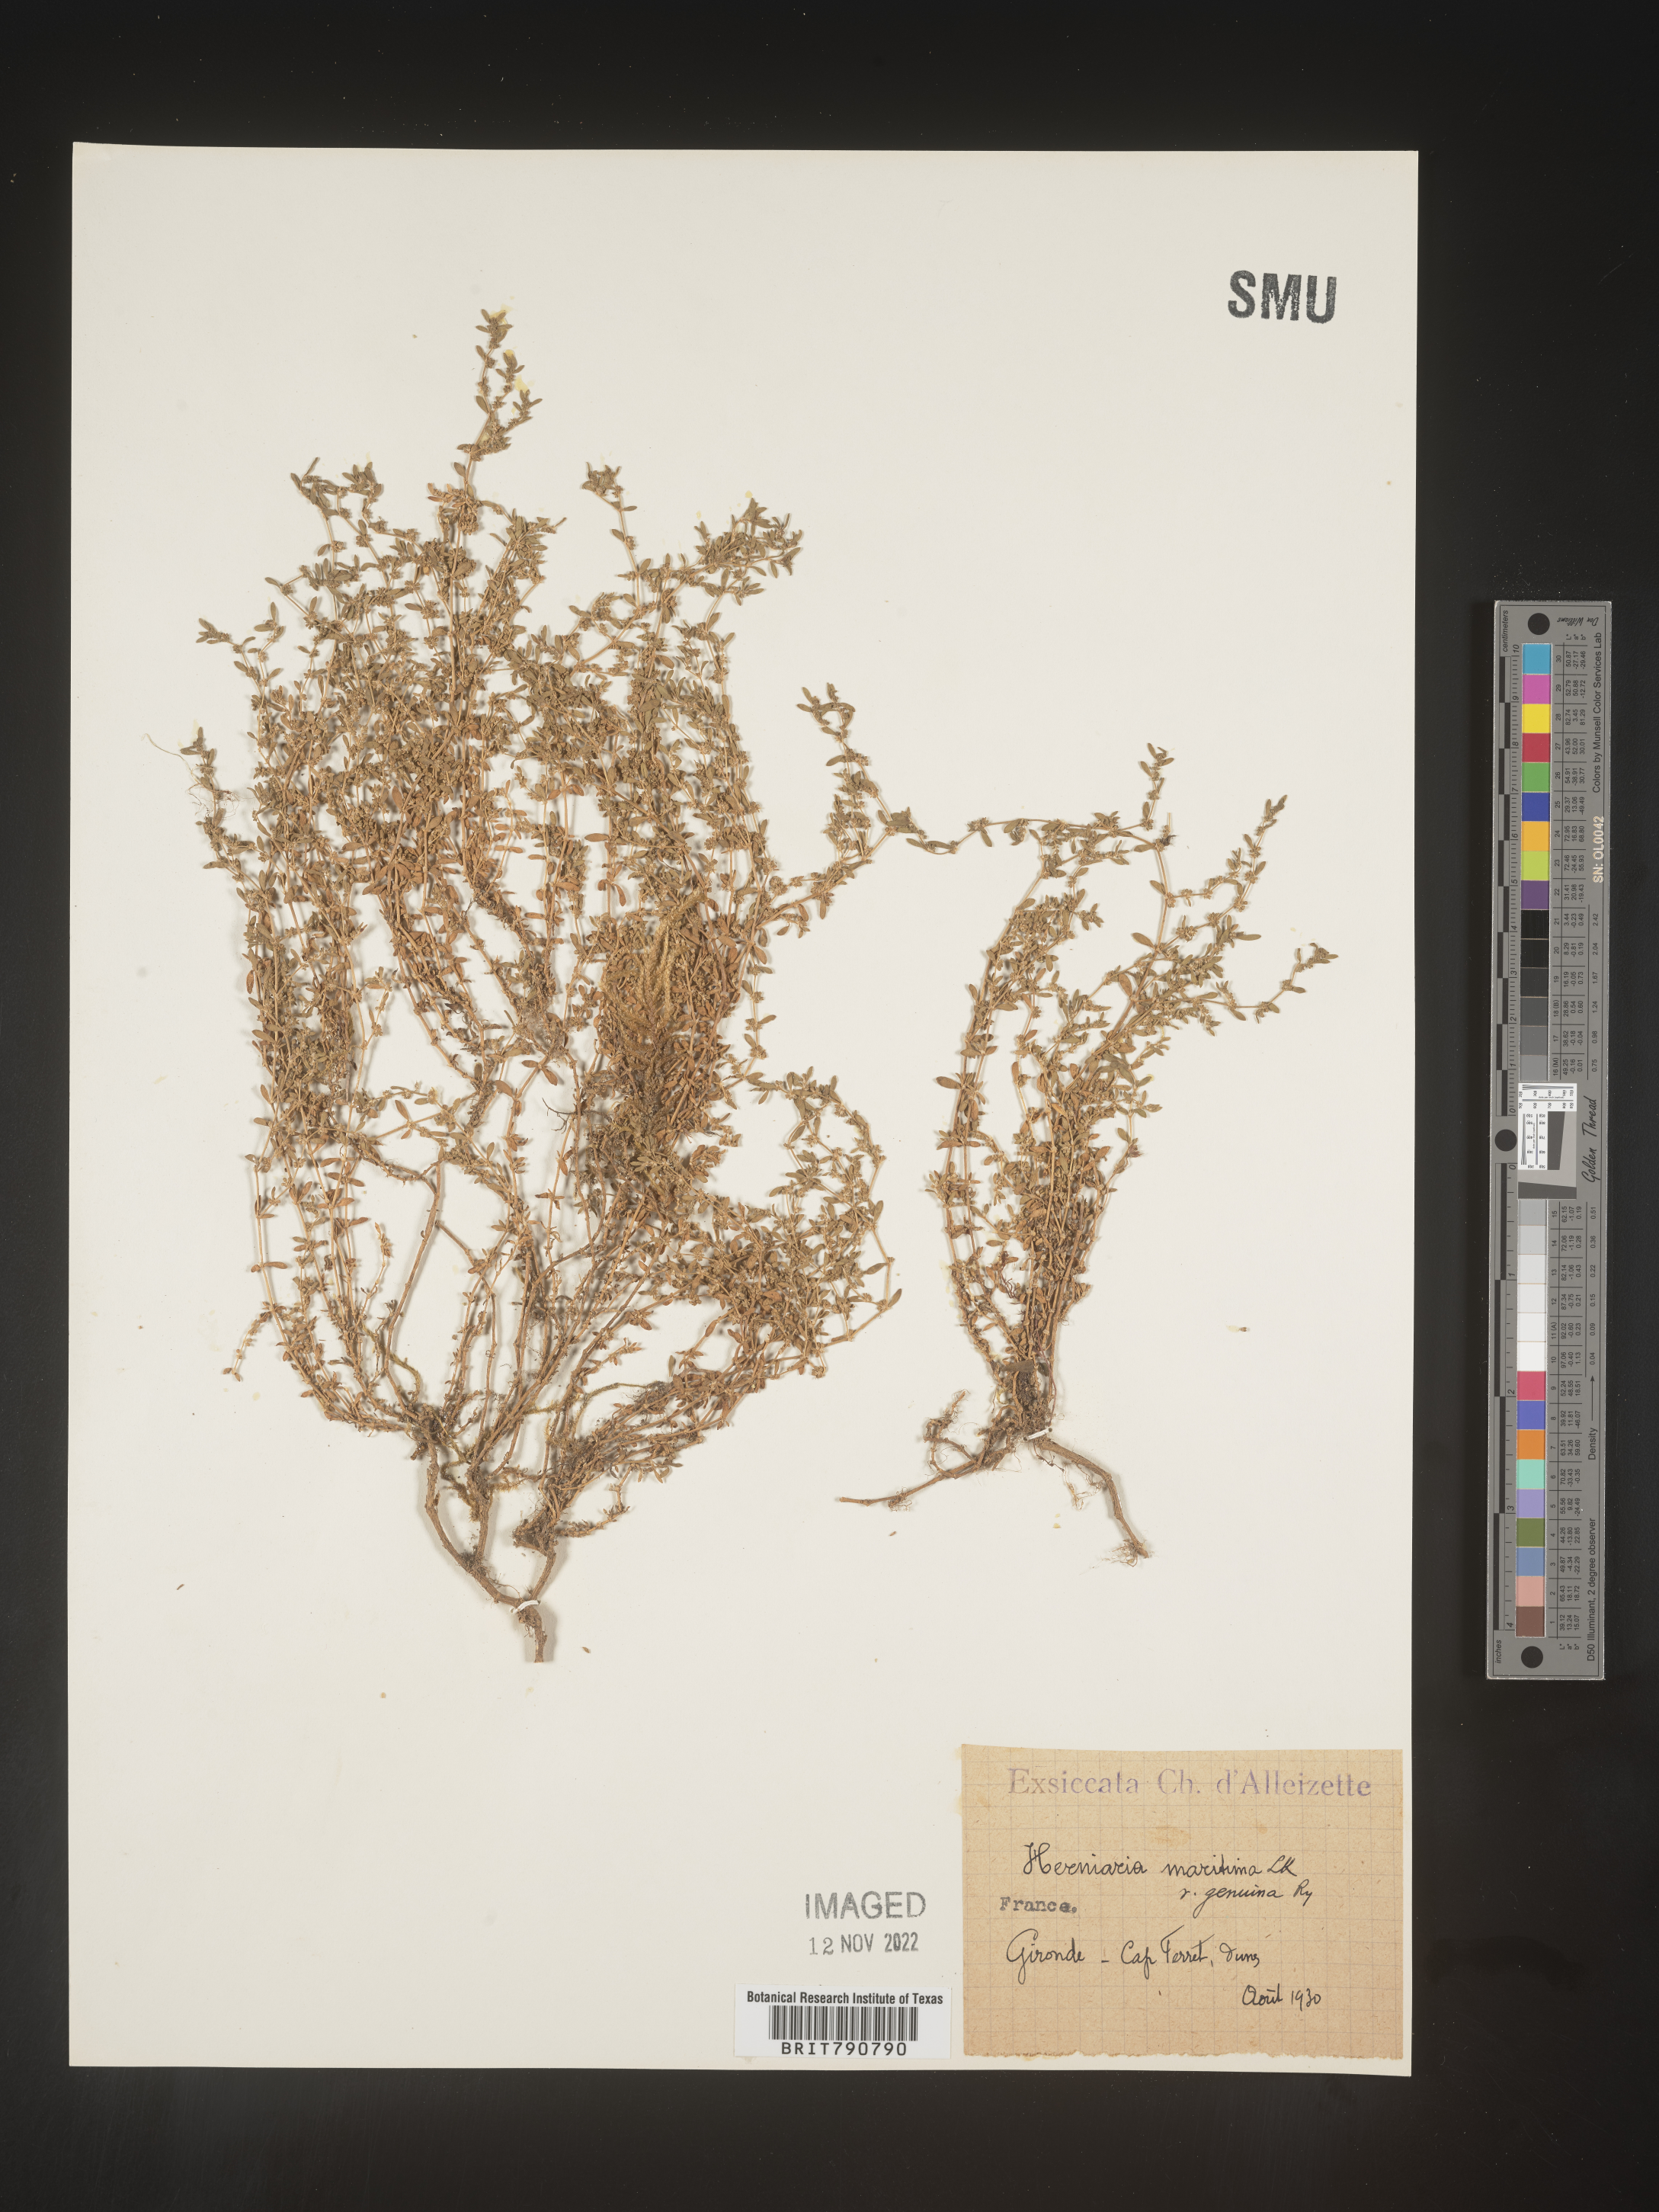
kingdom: Plantae
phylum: Tracheophyta
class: Magnoliopsida
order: Caryophyllales
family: Caryophyllaceae
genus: Herniaria
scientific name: Herniaria
